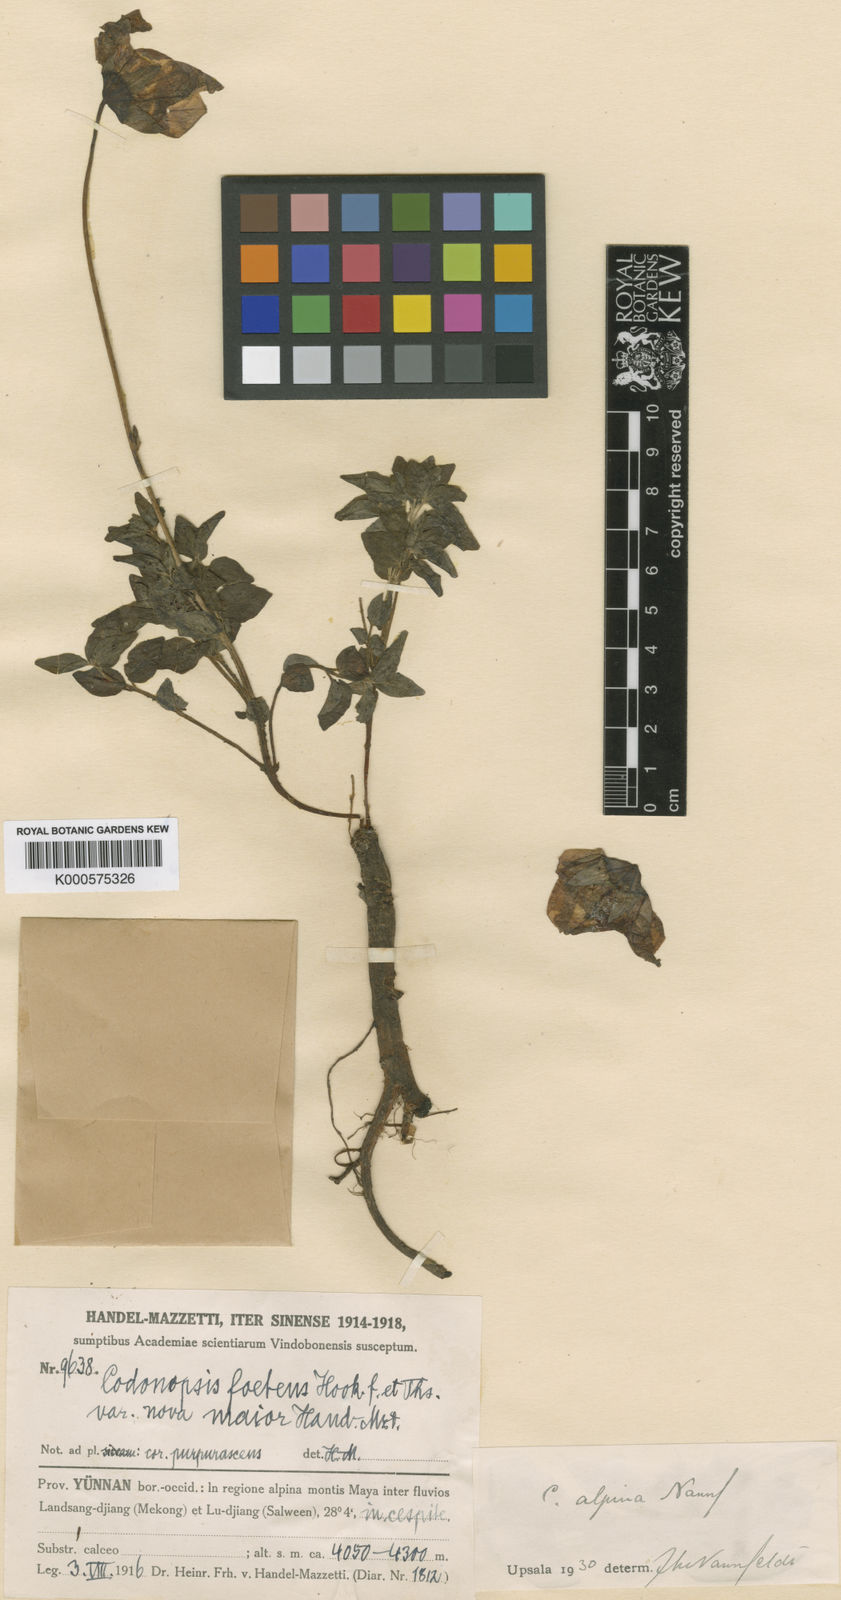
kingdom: Plantae
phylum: Tracheophyta
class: Magnoliopsida
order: Asterales
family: Campanulaceae
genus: Codonopsis
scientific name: Codonopsis alpina
